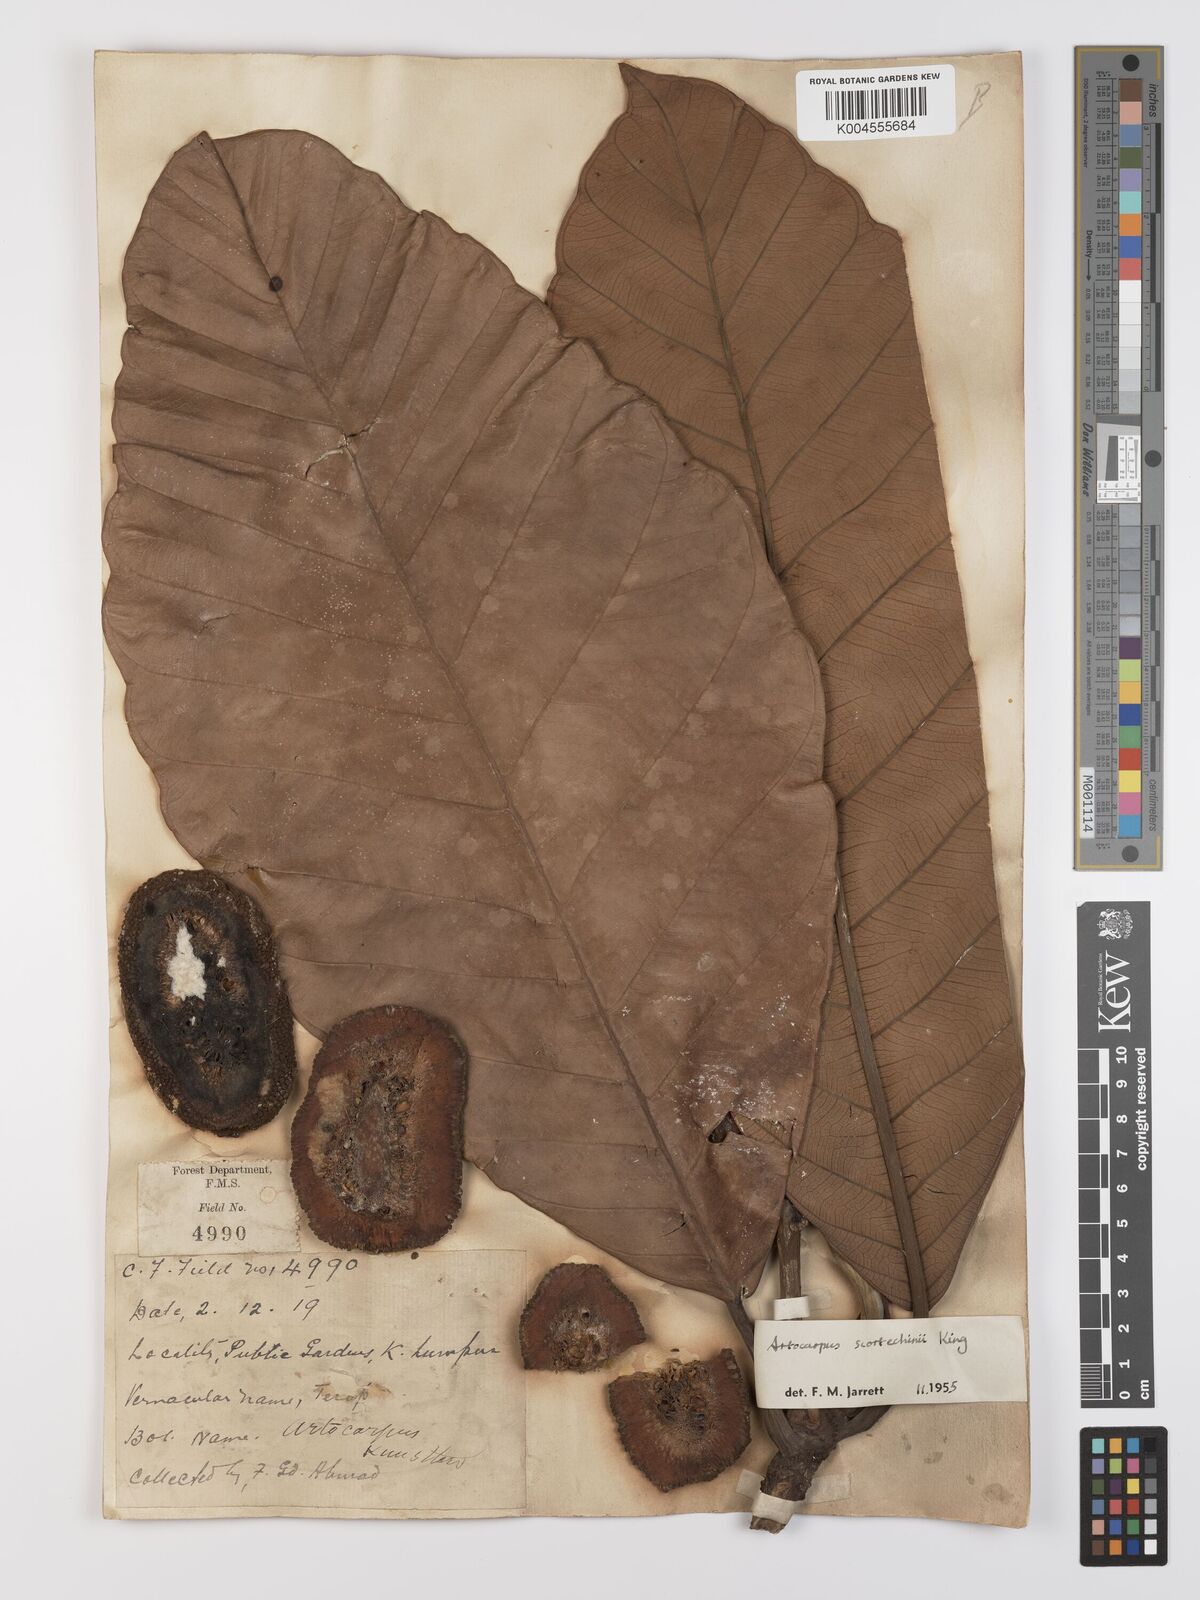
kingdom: Plantae
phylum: Tracheophyta
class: Magnoliopsida
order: Rosales
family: Moraceae
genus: Artocarpus
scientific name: Artocarpus elasticus
